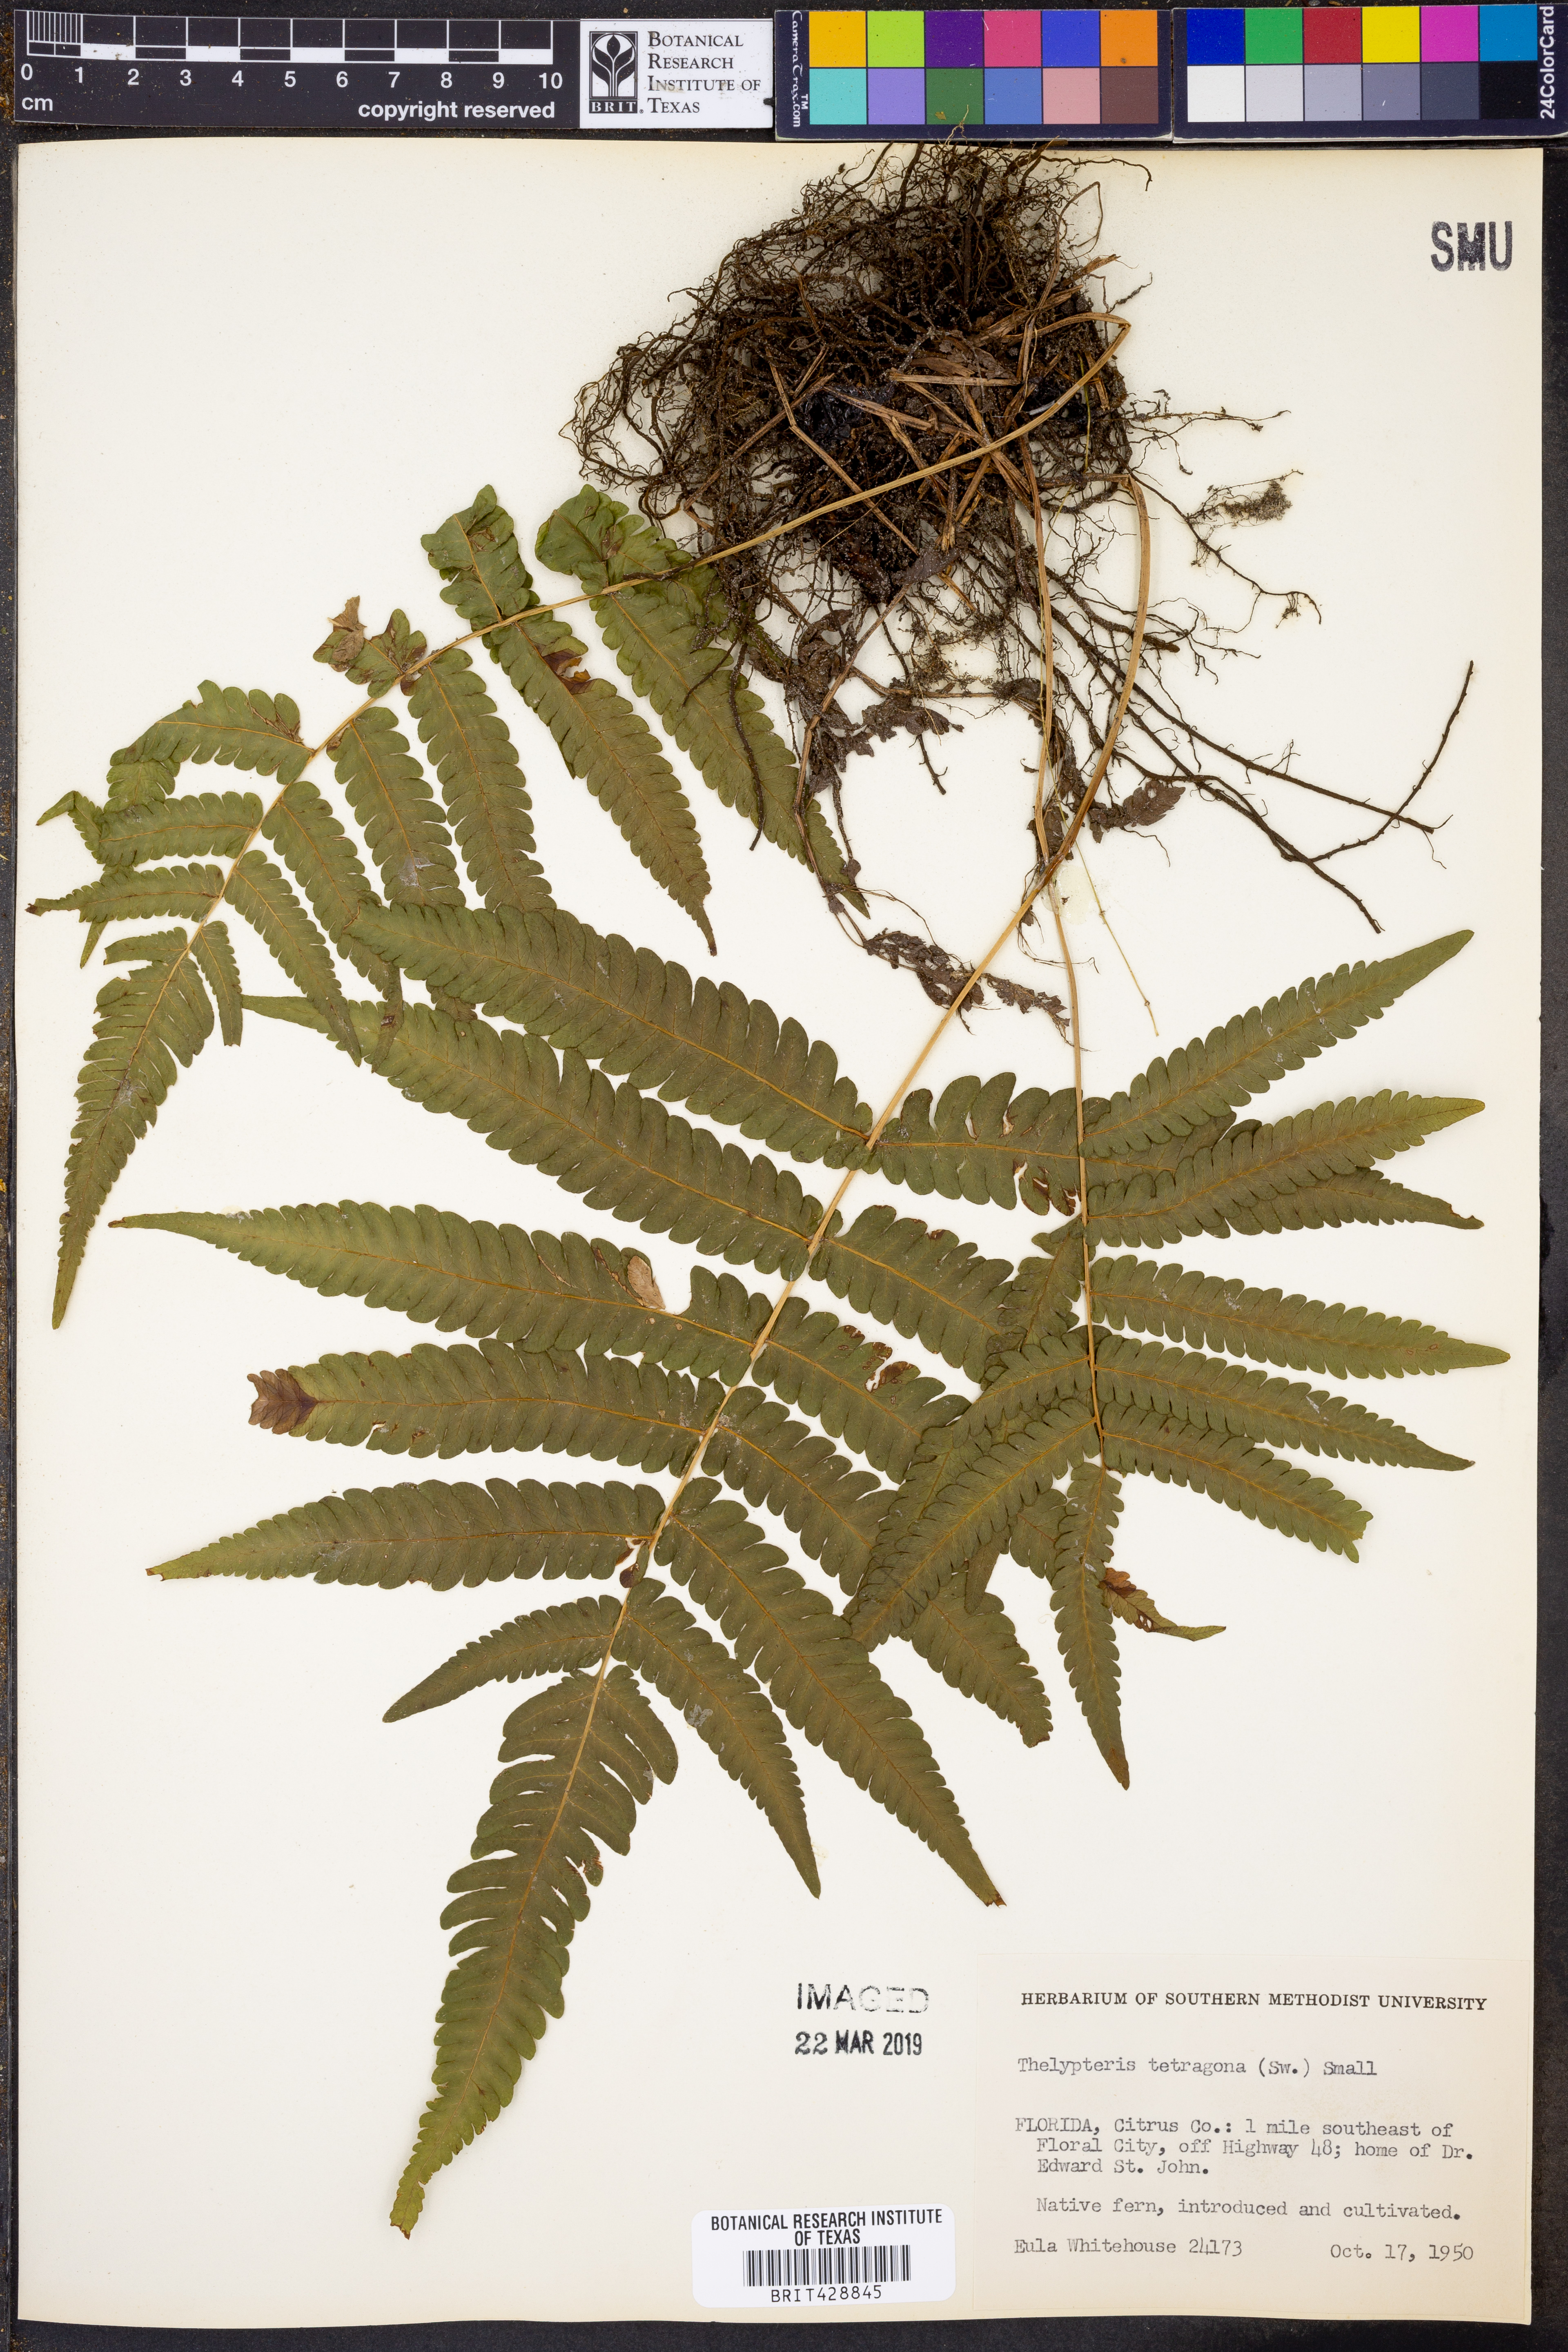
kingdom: Plantae
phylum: Tracheophyta
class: Polypodiopsida
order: Polypodiales
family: Thelypteridaceae
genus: Goniopteris
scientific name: Goniopteris tetragona
